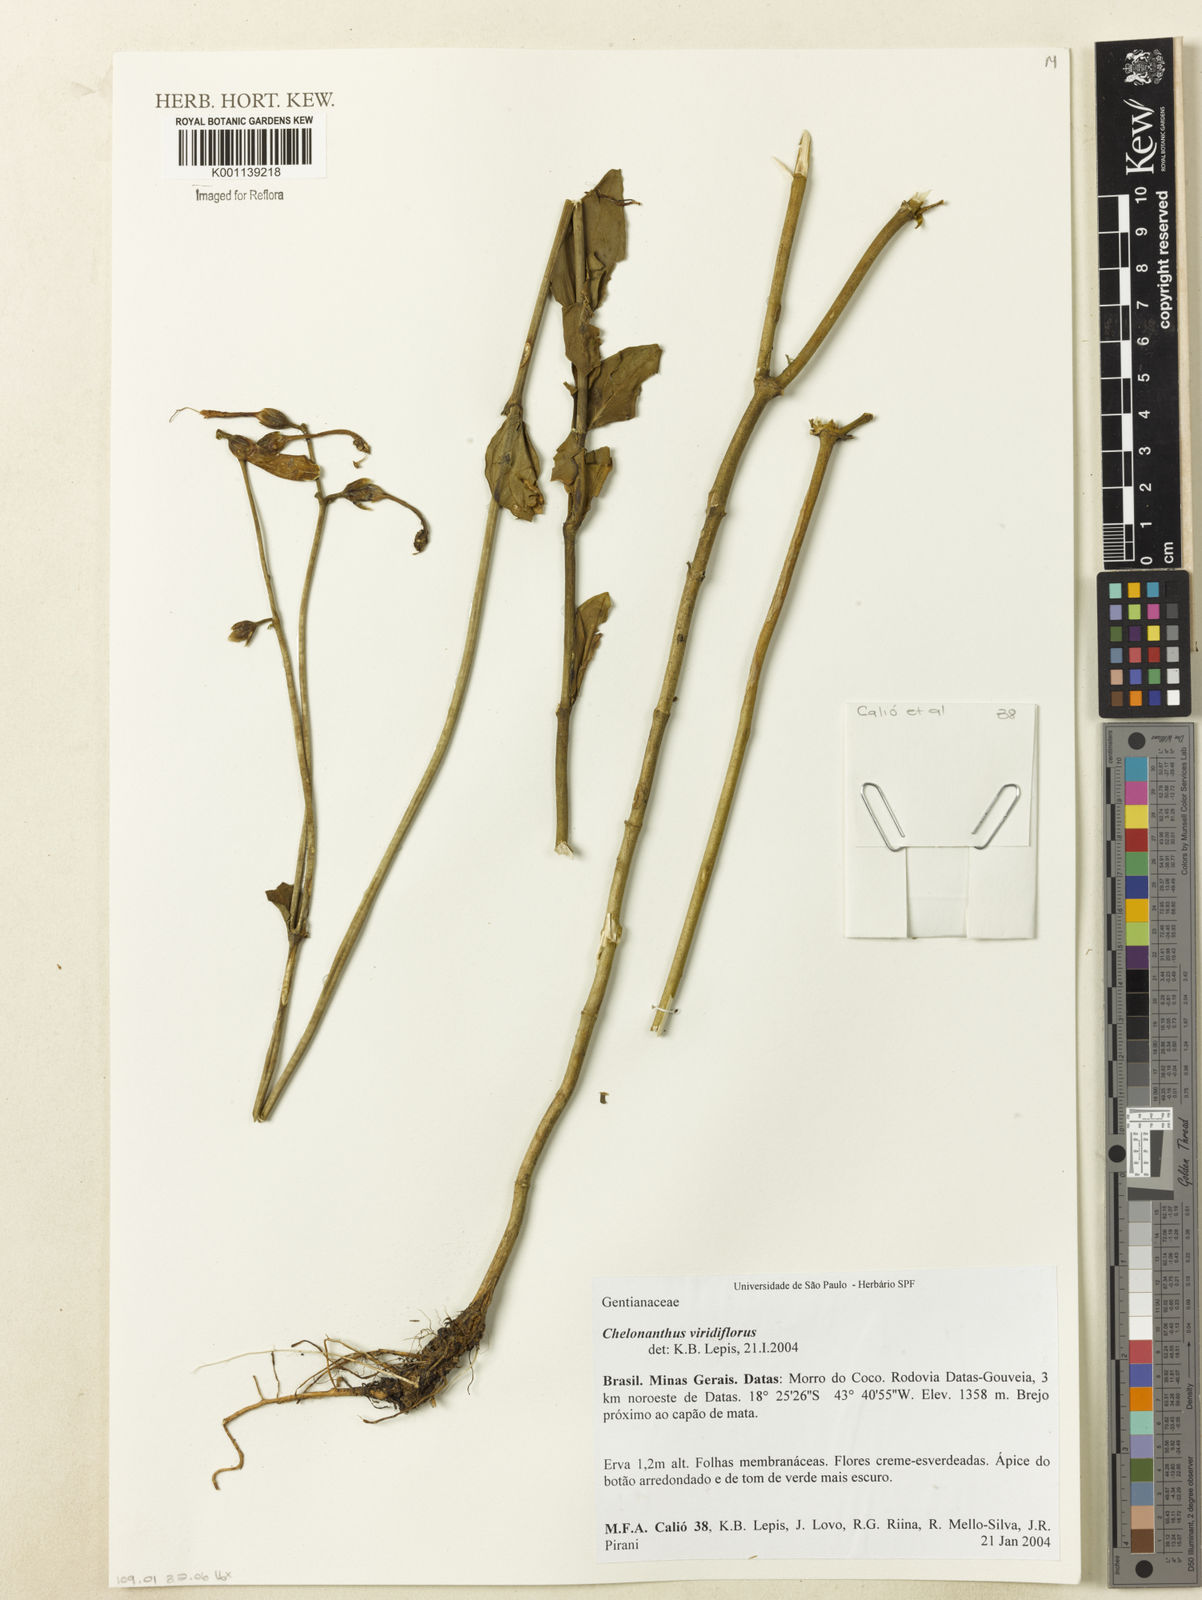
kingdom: Plantae
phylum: Tracheophyta
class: Magnoliopsida
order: Gentianales
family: Gentianaceae
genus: Chelonanthus
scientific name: Chelonanthus viridiflorus
